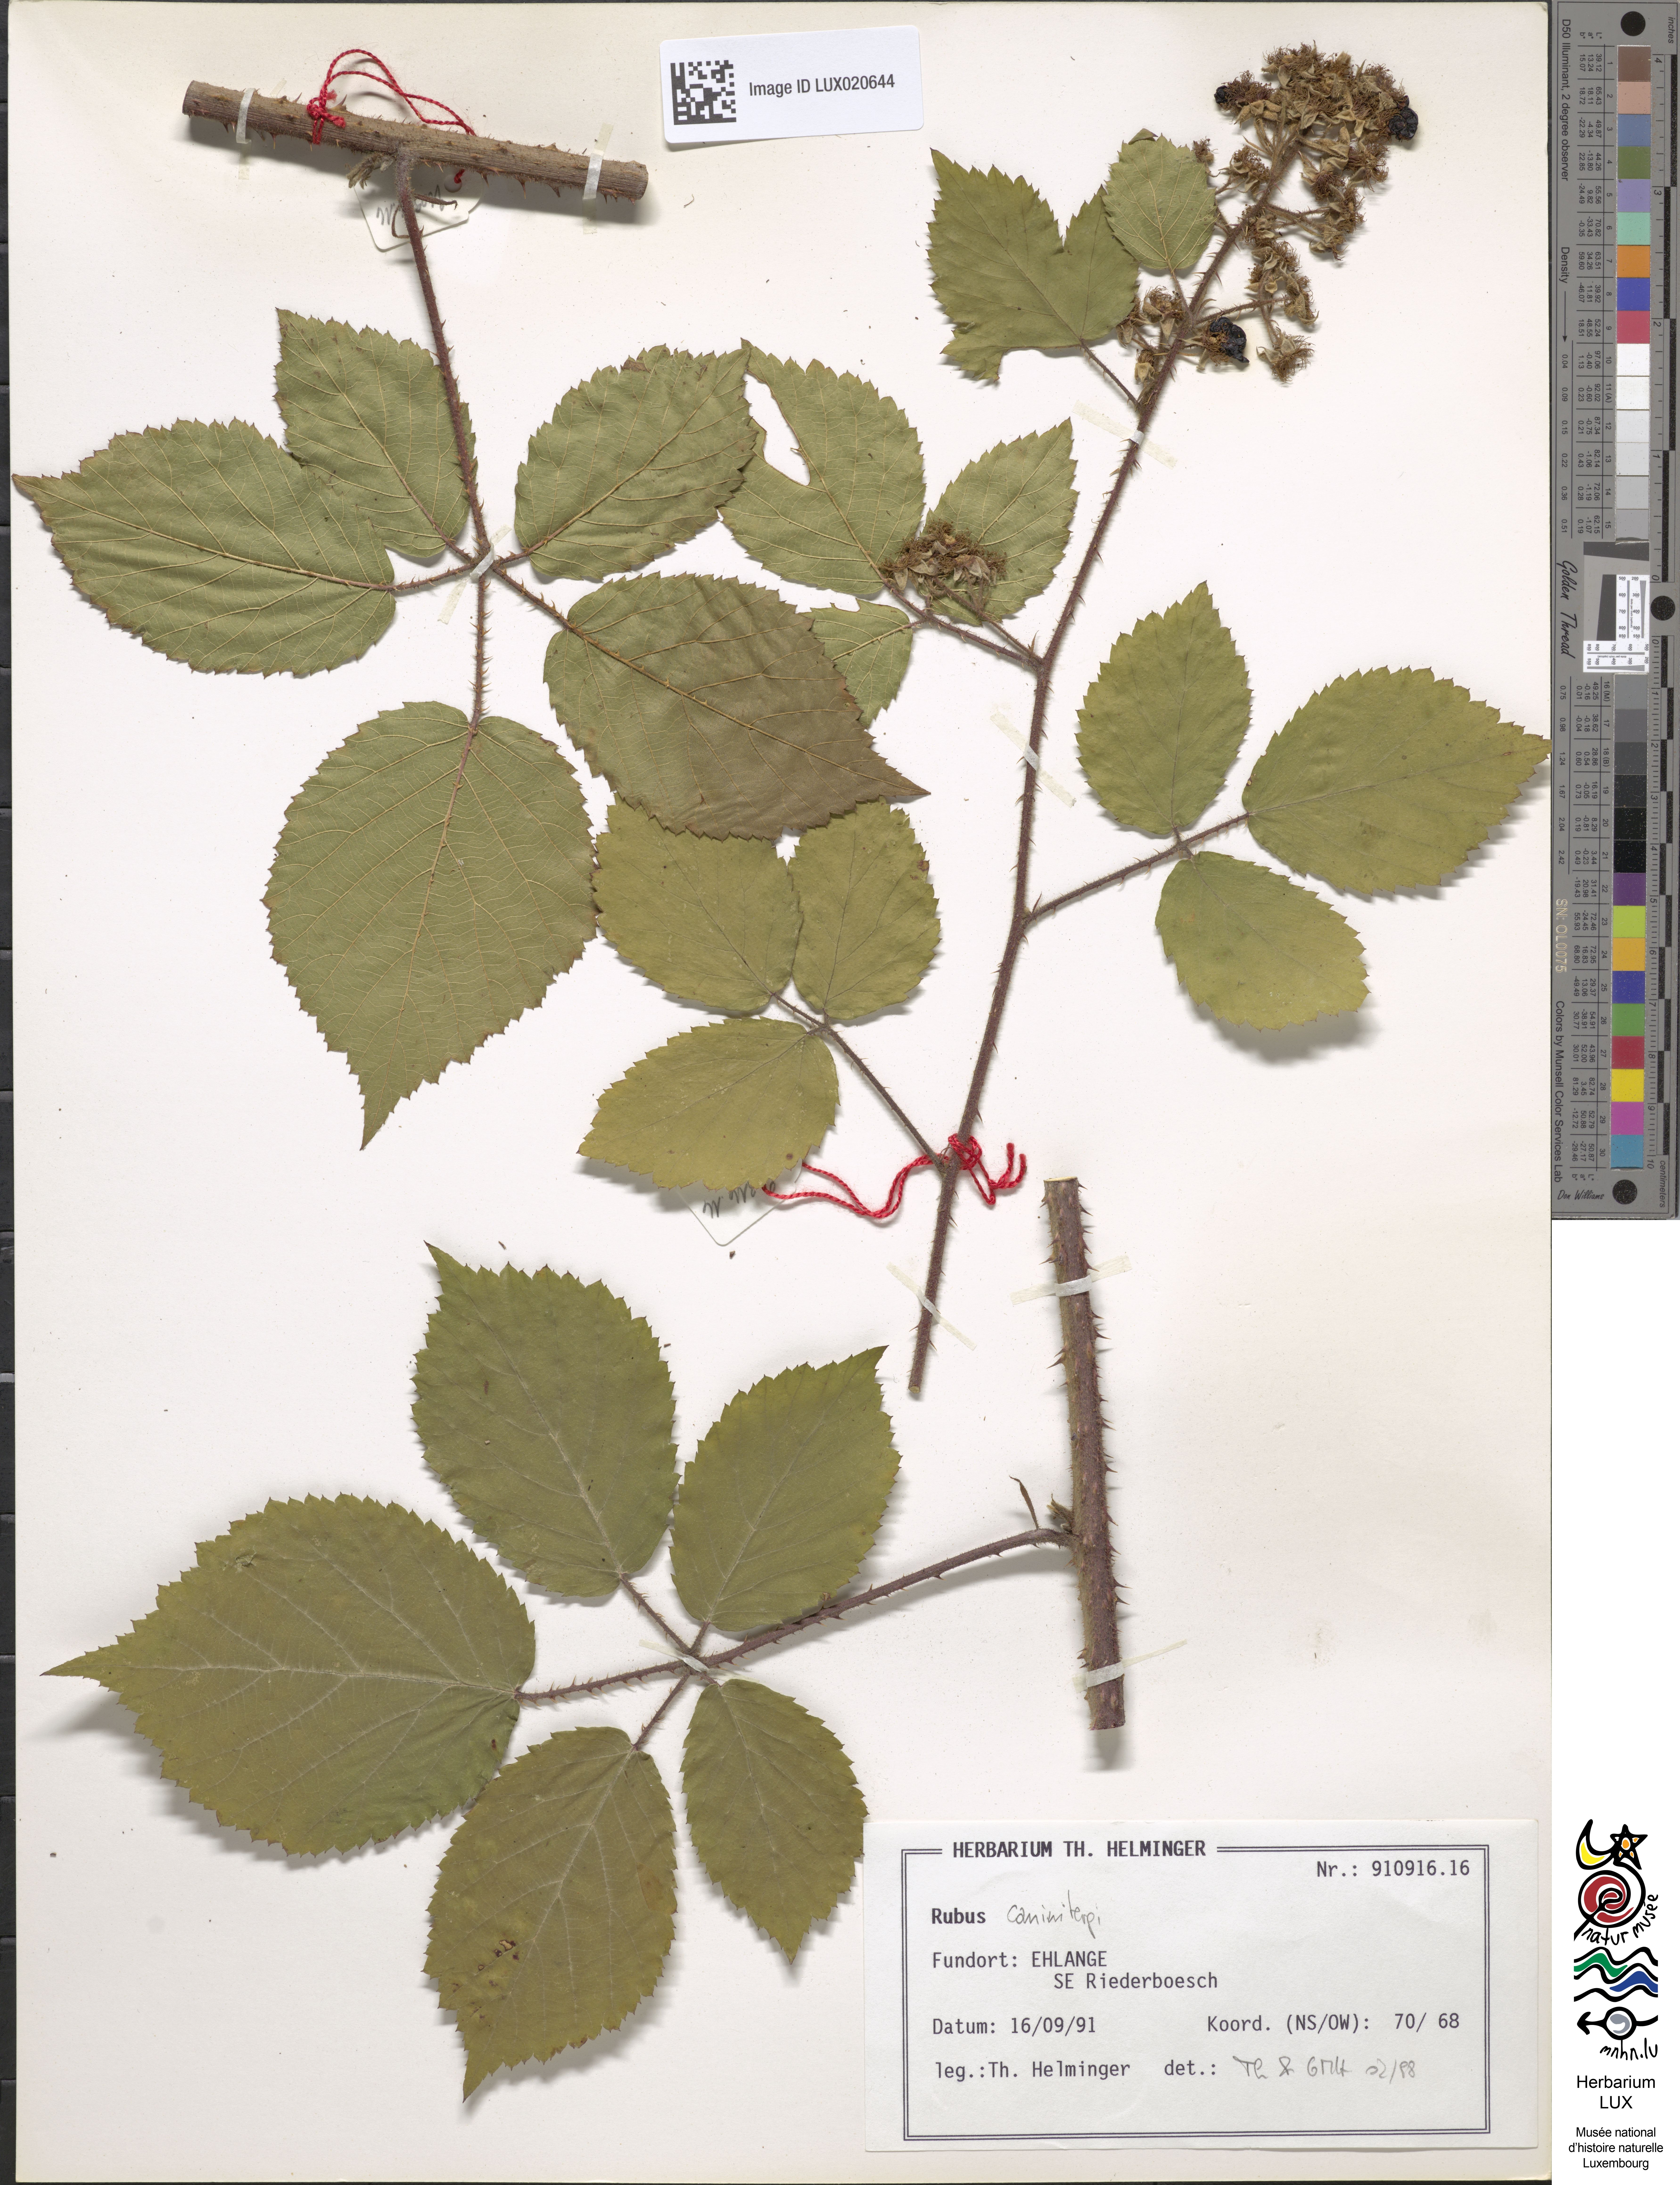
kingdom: Plantae
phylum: Tracheophyta
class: Magnoliopsida
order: Rosales
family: Rosaceae
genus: Rubus
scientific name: Rubus caninitergi
